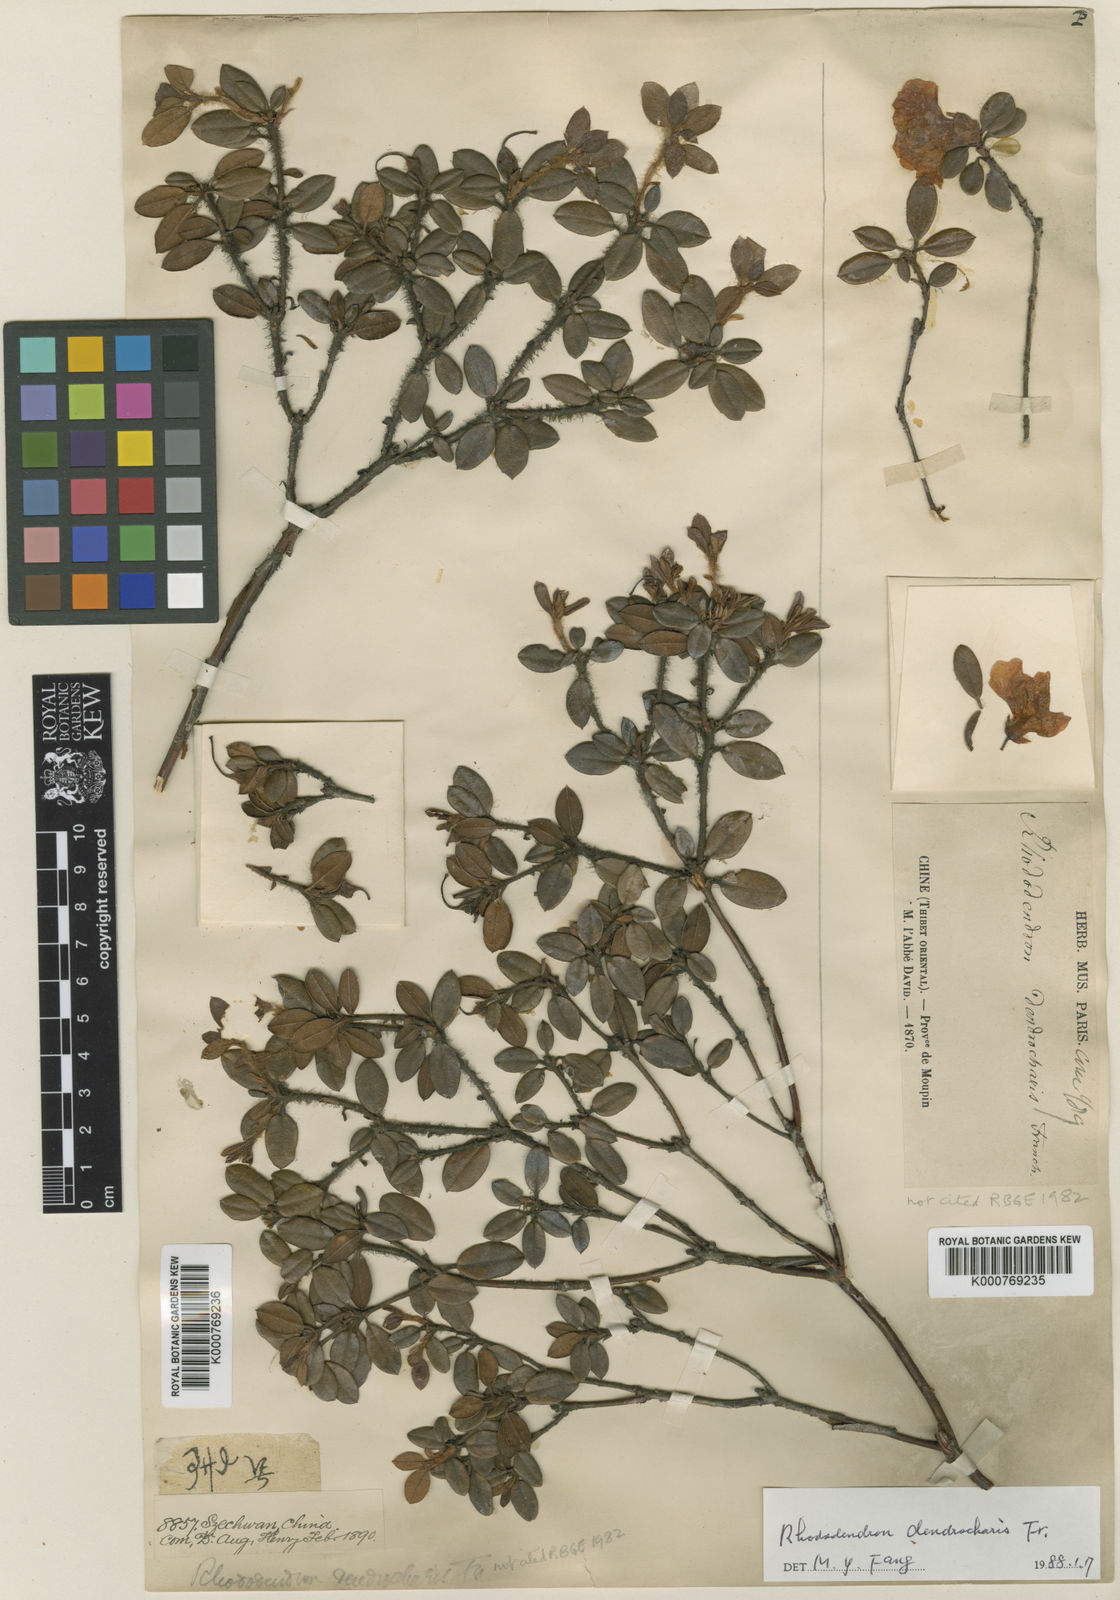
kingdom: Plantae
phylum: Tracheophyta
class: Magnoliopsida
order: Ericales
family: Ericaceae
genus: Rhododendron
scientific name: Rhododendron dendrocharis
